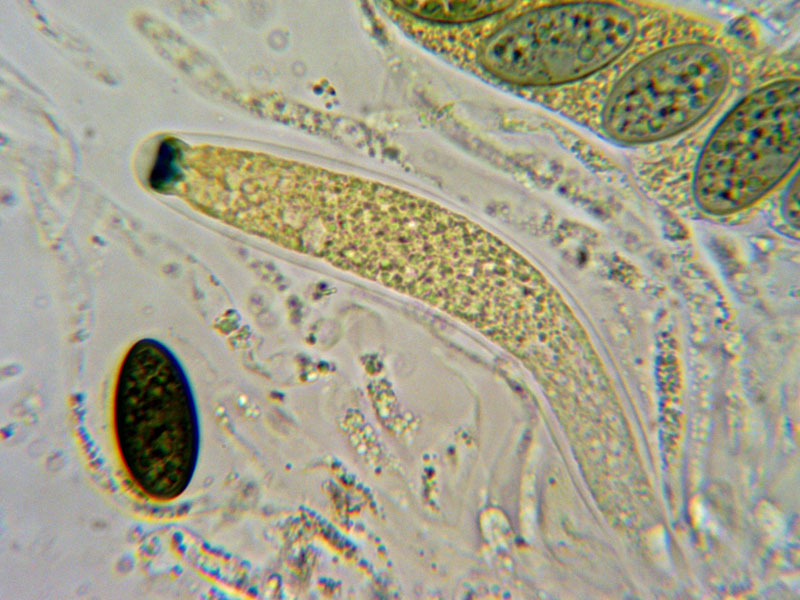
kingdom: Fungi
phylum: Ascomycota
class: Sordariomycetes
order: Amphisphaeriales
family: Amphisphaeriaceae
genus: Chitonospora
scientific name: Chitonospora ammophila
